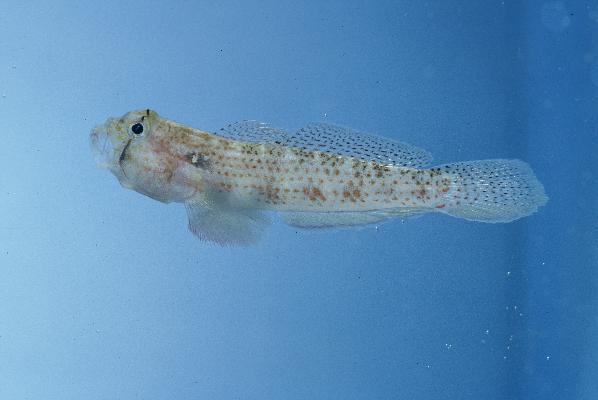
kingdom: Animalia
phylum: Chordata
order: Perciformes
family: Gobiidae
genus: Gnatholepis
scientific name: Gnatholepis cauerensis
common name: Bridled goby
